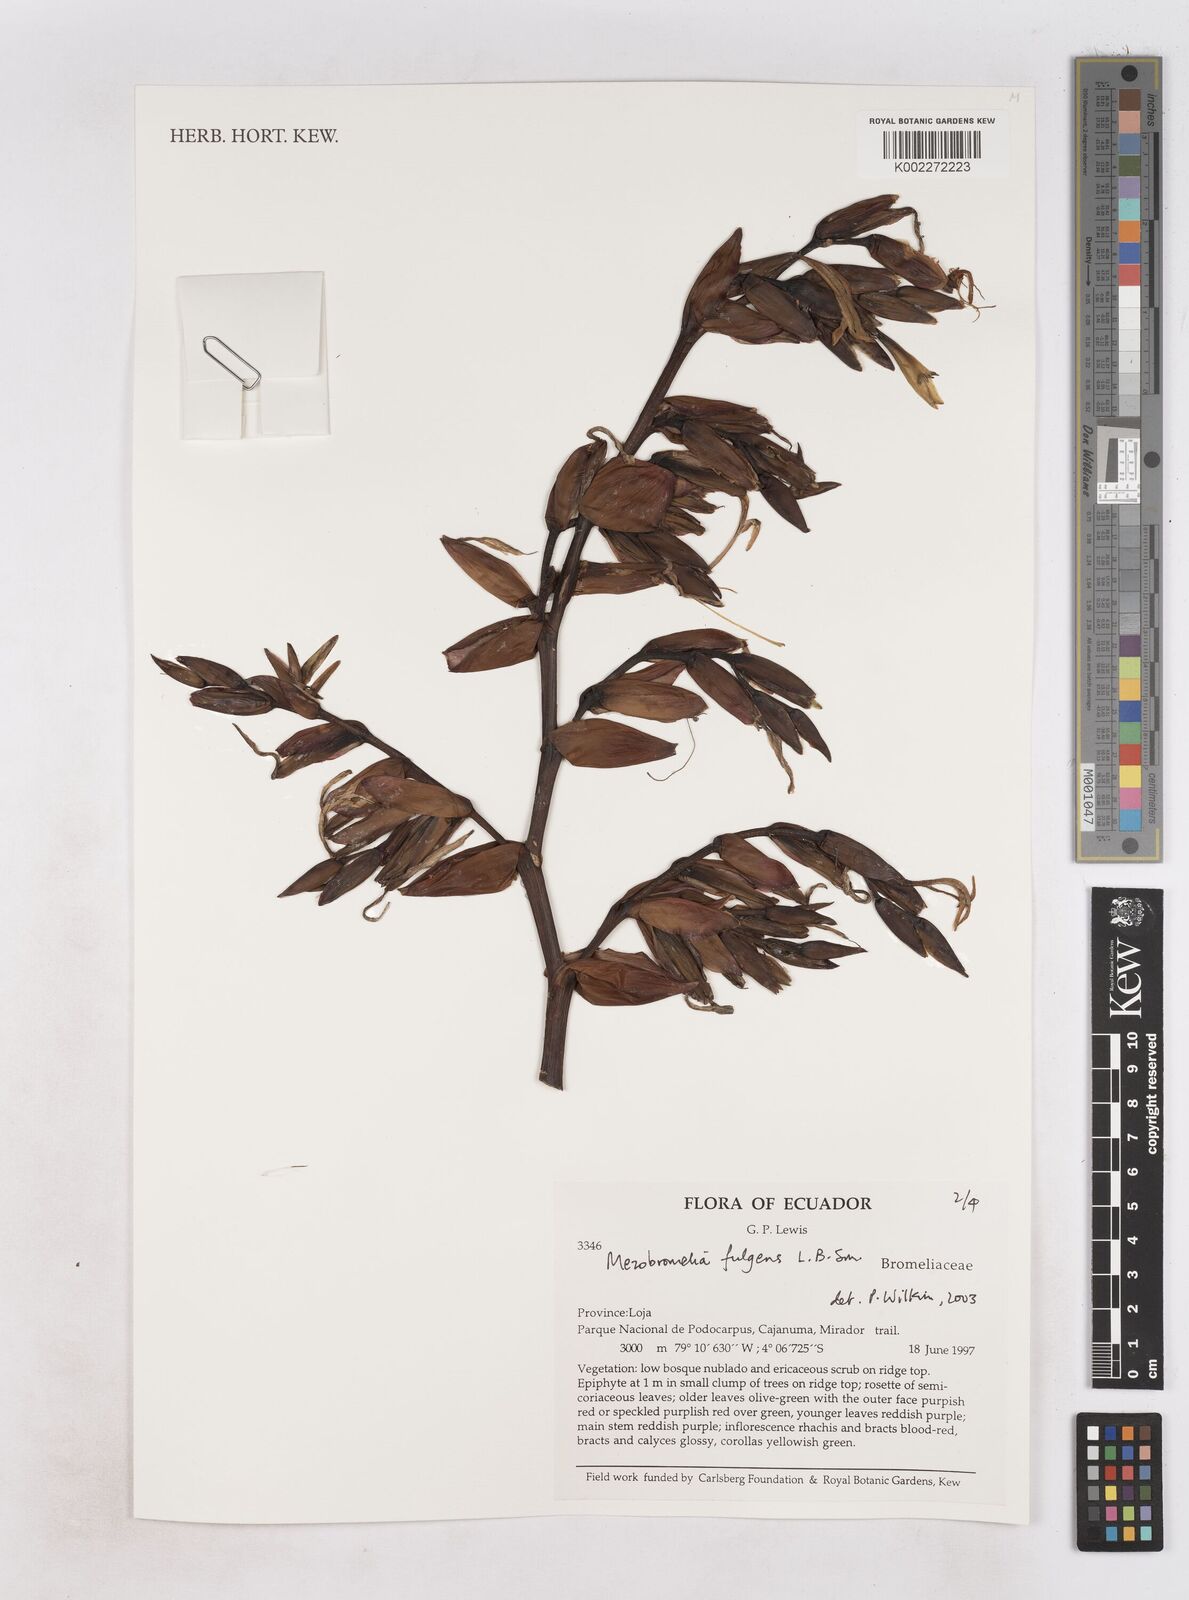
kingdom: Plantae
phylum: Tracheophyta
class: Liliopsida
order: Poales
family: Bromeliaceae
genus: Gregbrownia
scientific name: Gregbrownia fulgens
